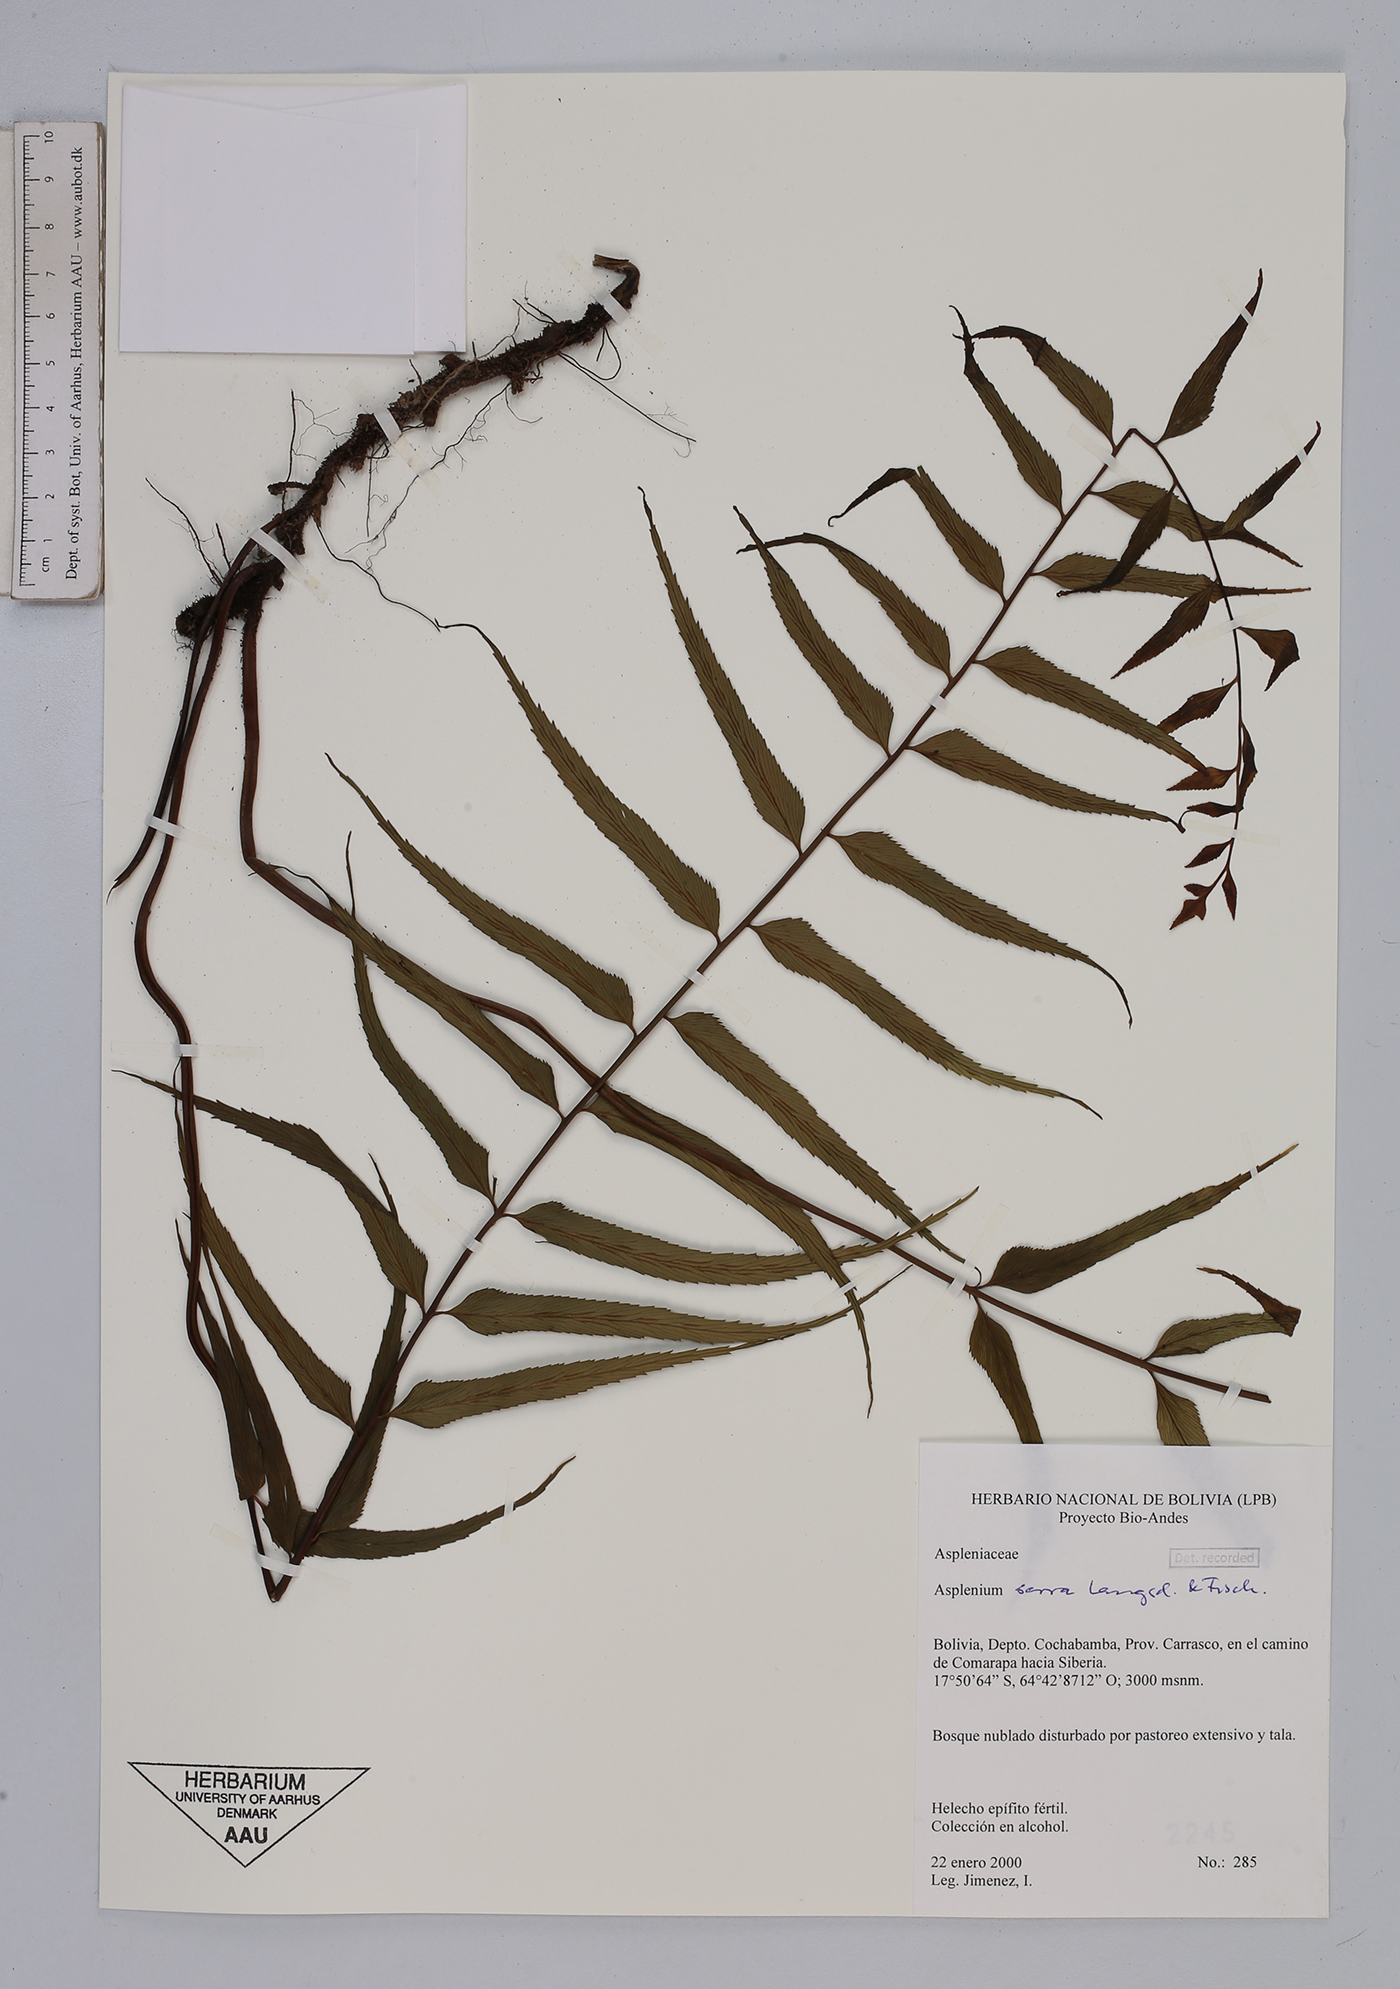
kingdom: Plantae
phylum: Tracheophyta
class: Polypodiopsida
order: Polypodiales
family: Aspleniaceae
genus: Asplenium
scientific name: Asplenium serra
